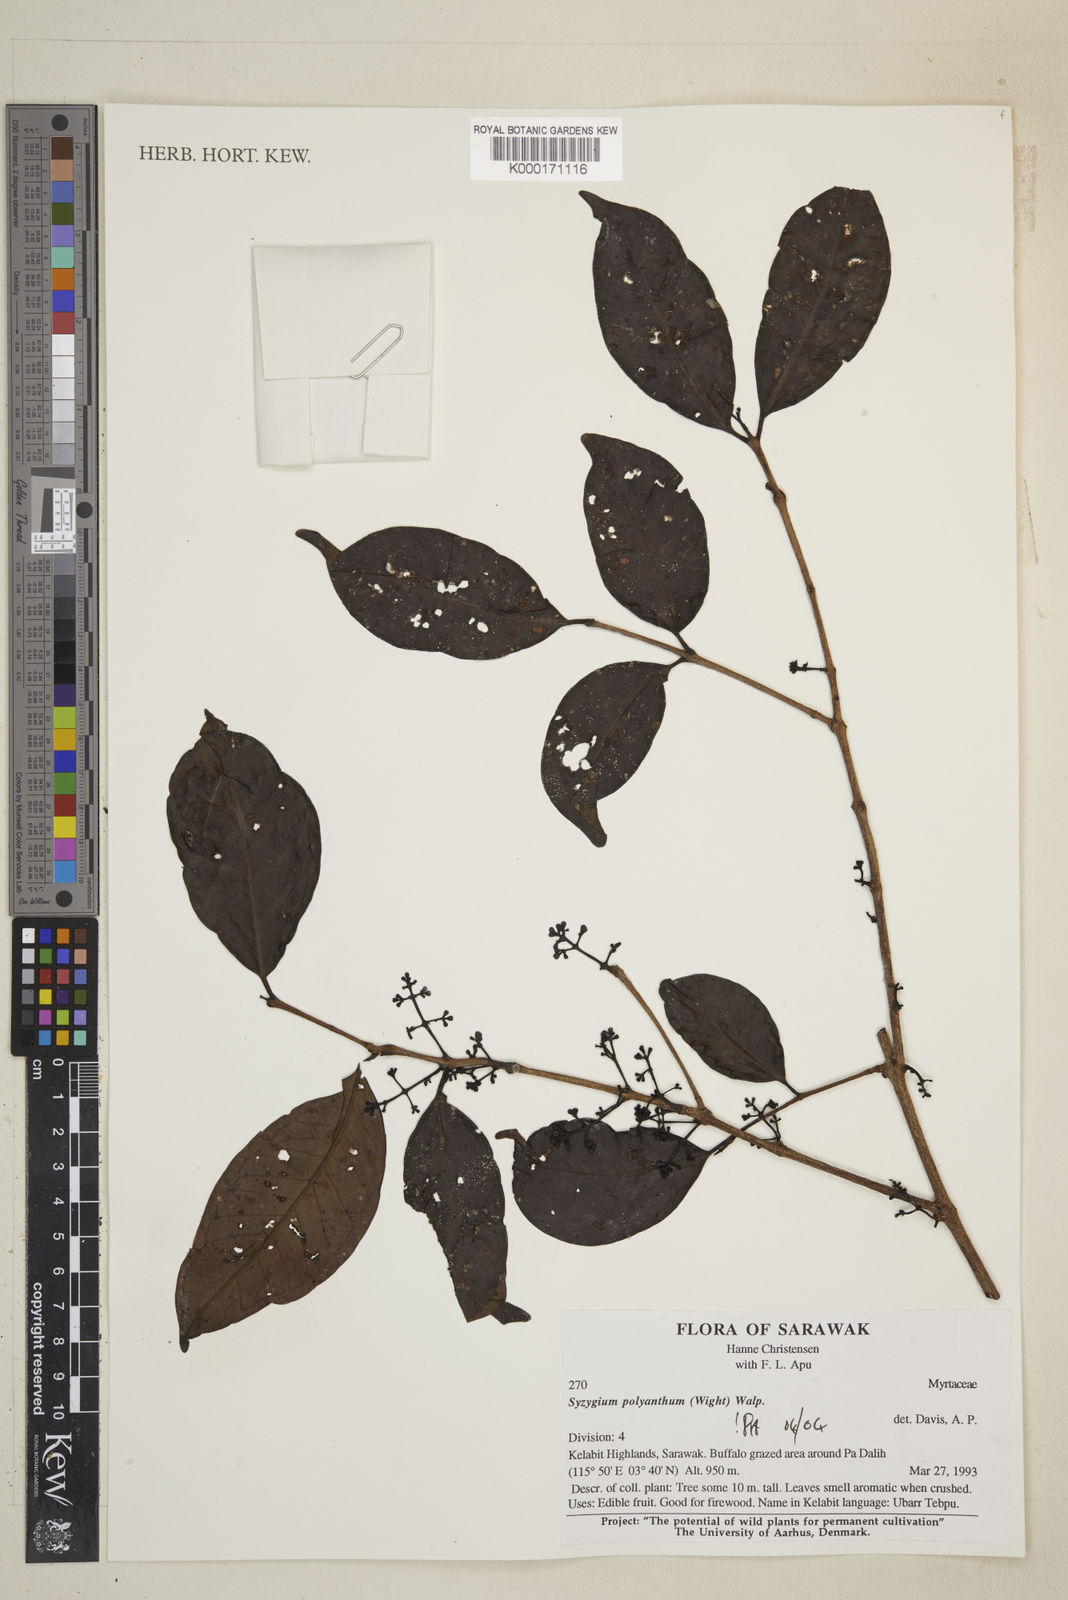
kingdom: Plantae
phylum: Tracheophyta
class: Magnoliopsida
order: Myrtales
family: Myrtaceae
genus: Syzygium
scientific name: Syzygium polyanthum
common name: Indonesian bayleaf
